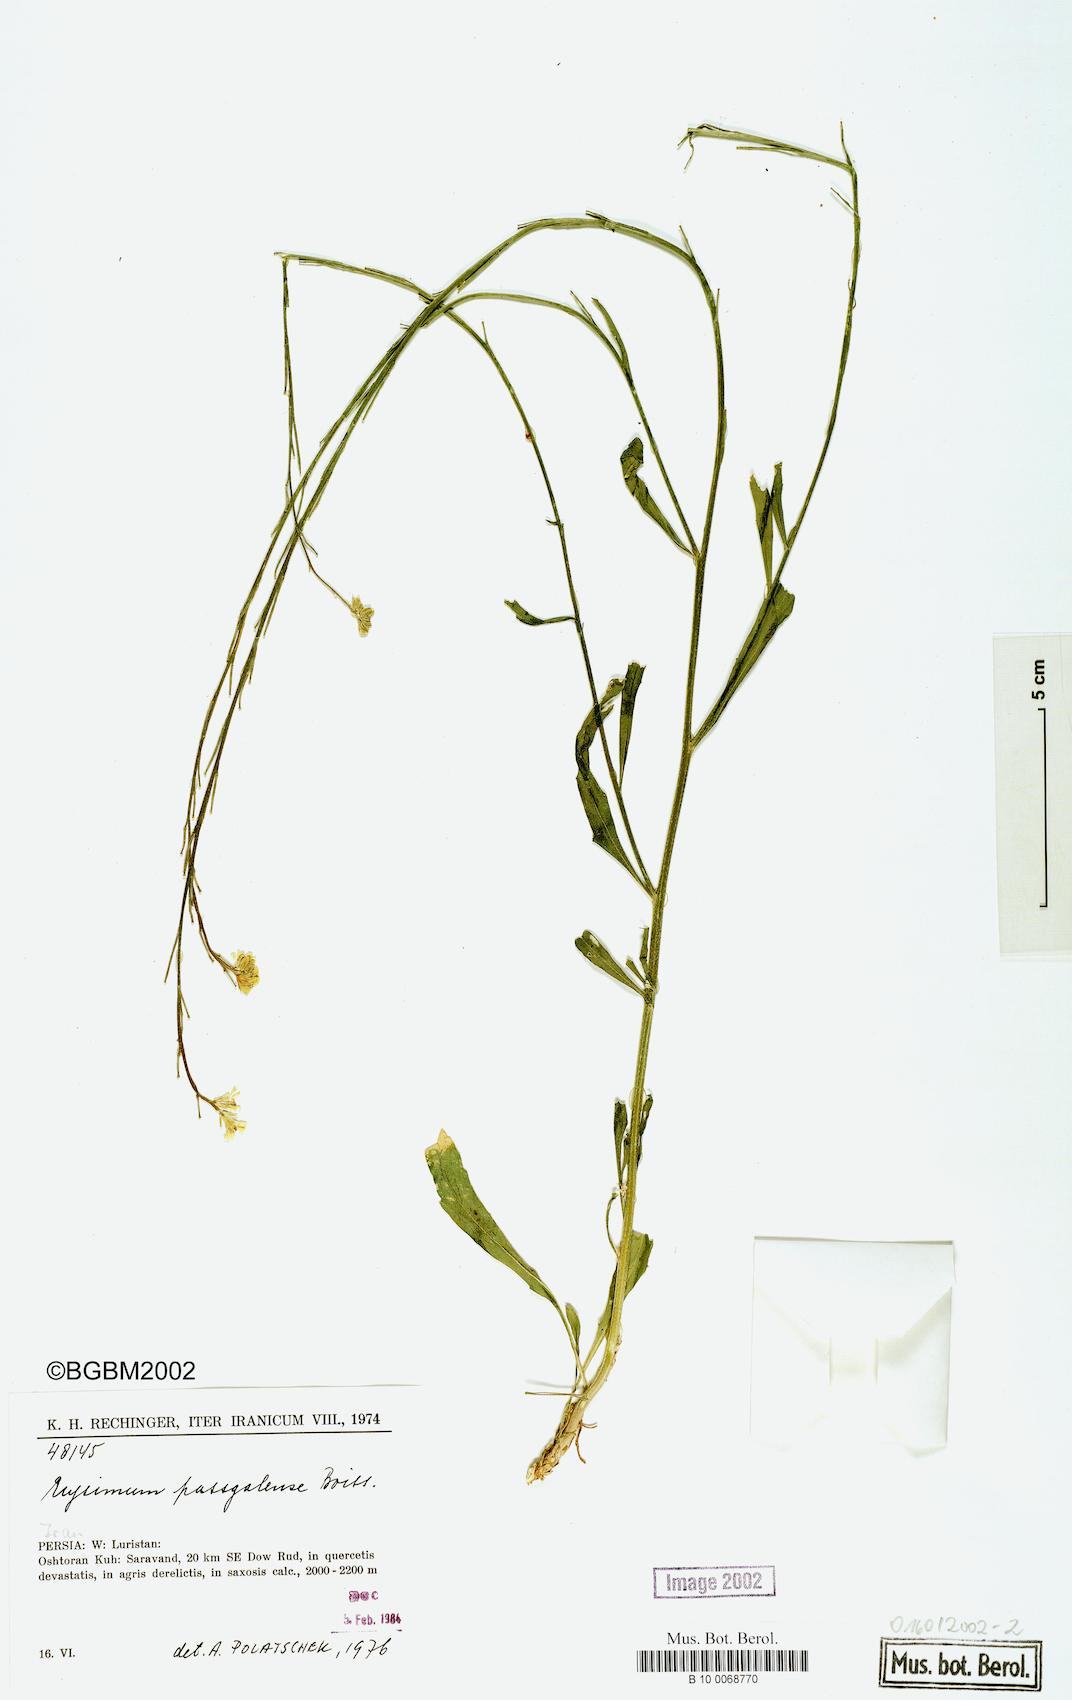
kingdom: Plantae
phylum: Tracheophyta
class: Magnoliopsida
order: Brassicales
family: Brassicaceae
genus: Erysimum
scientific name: Erysimum aucherianum
